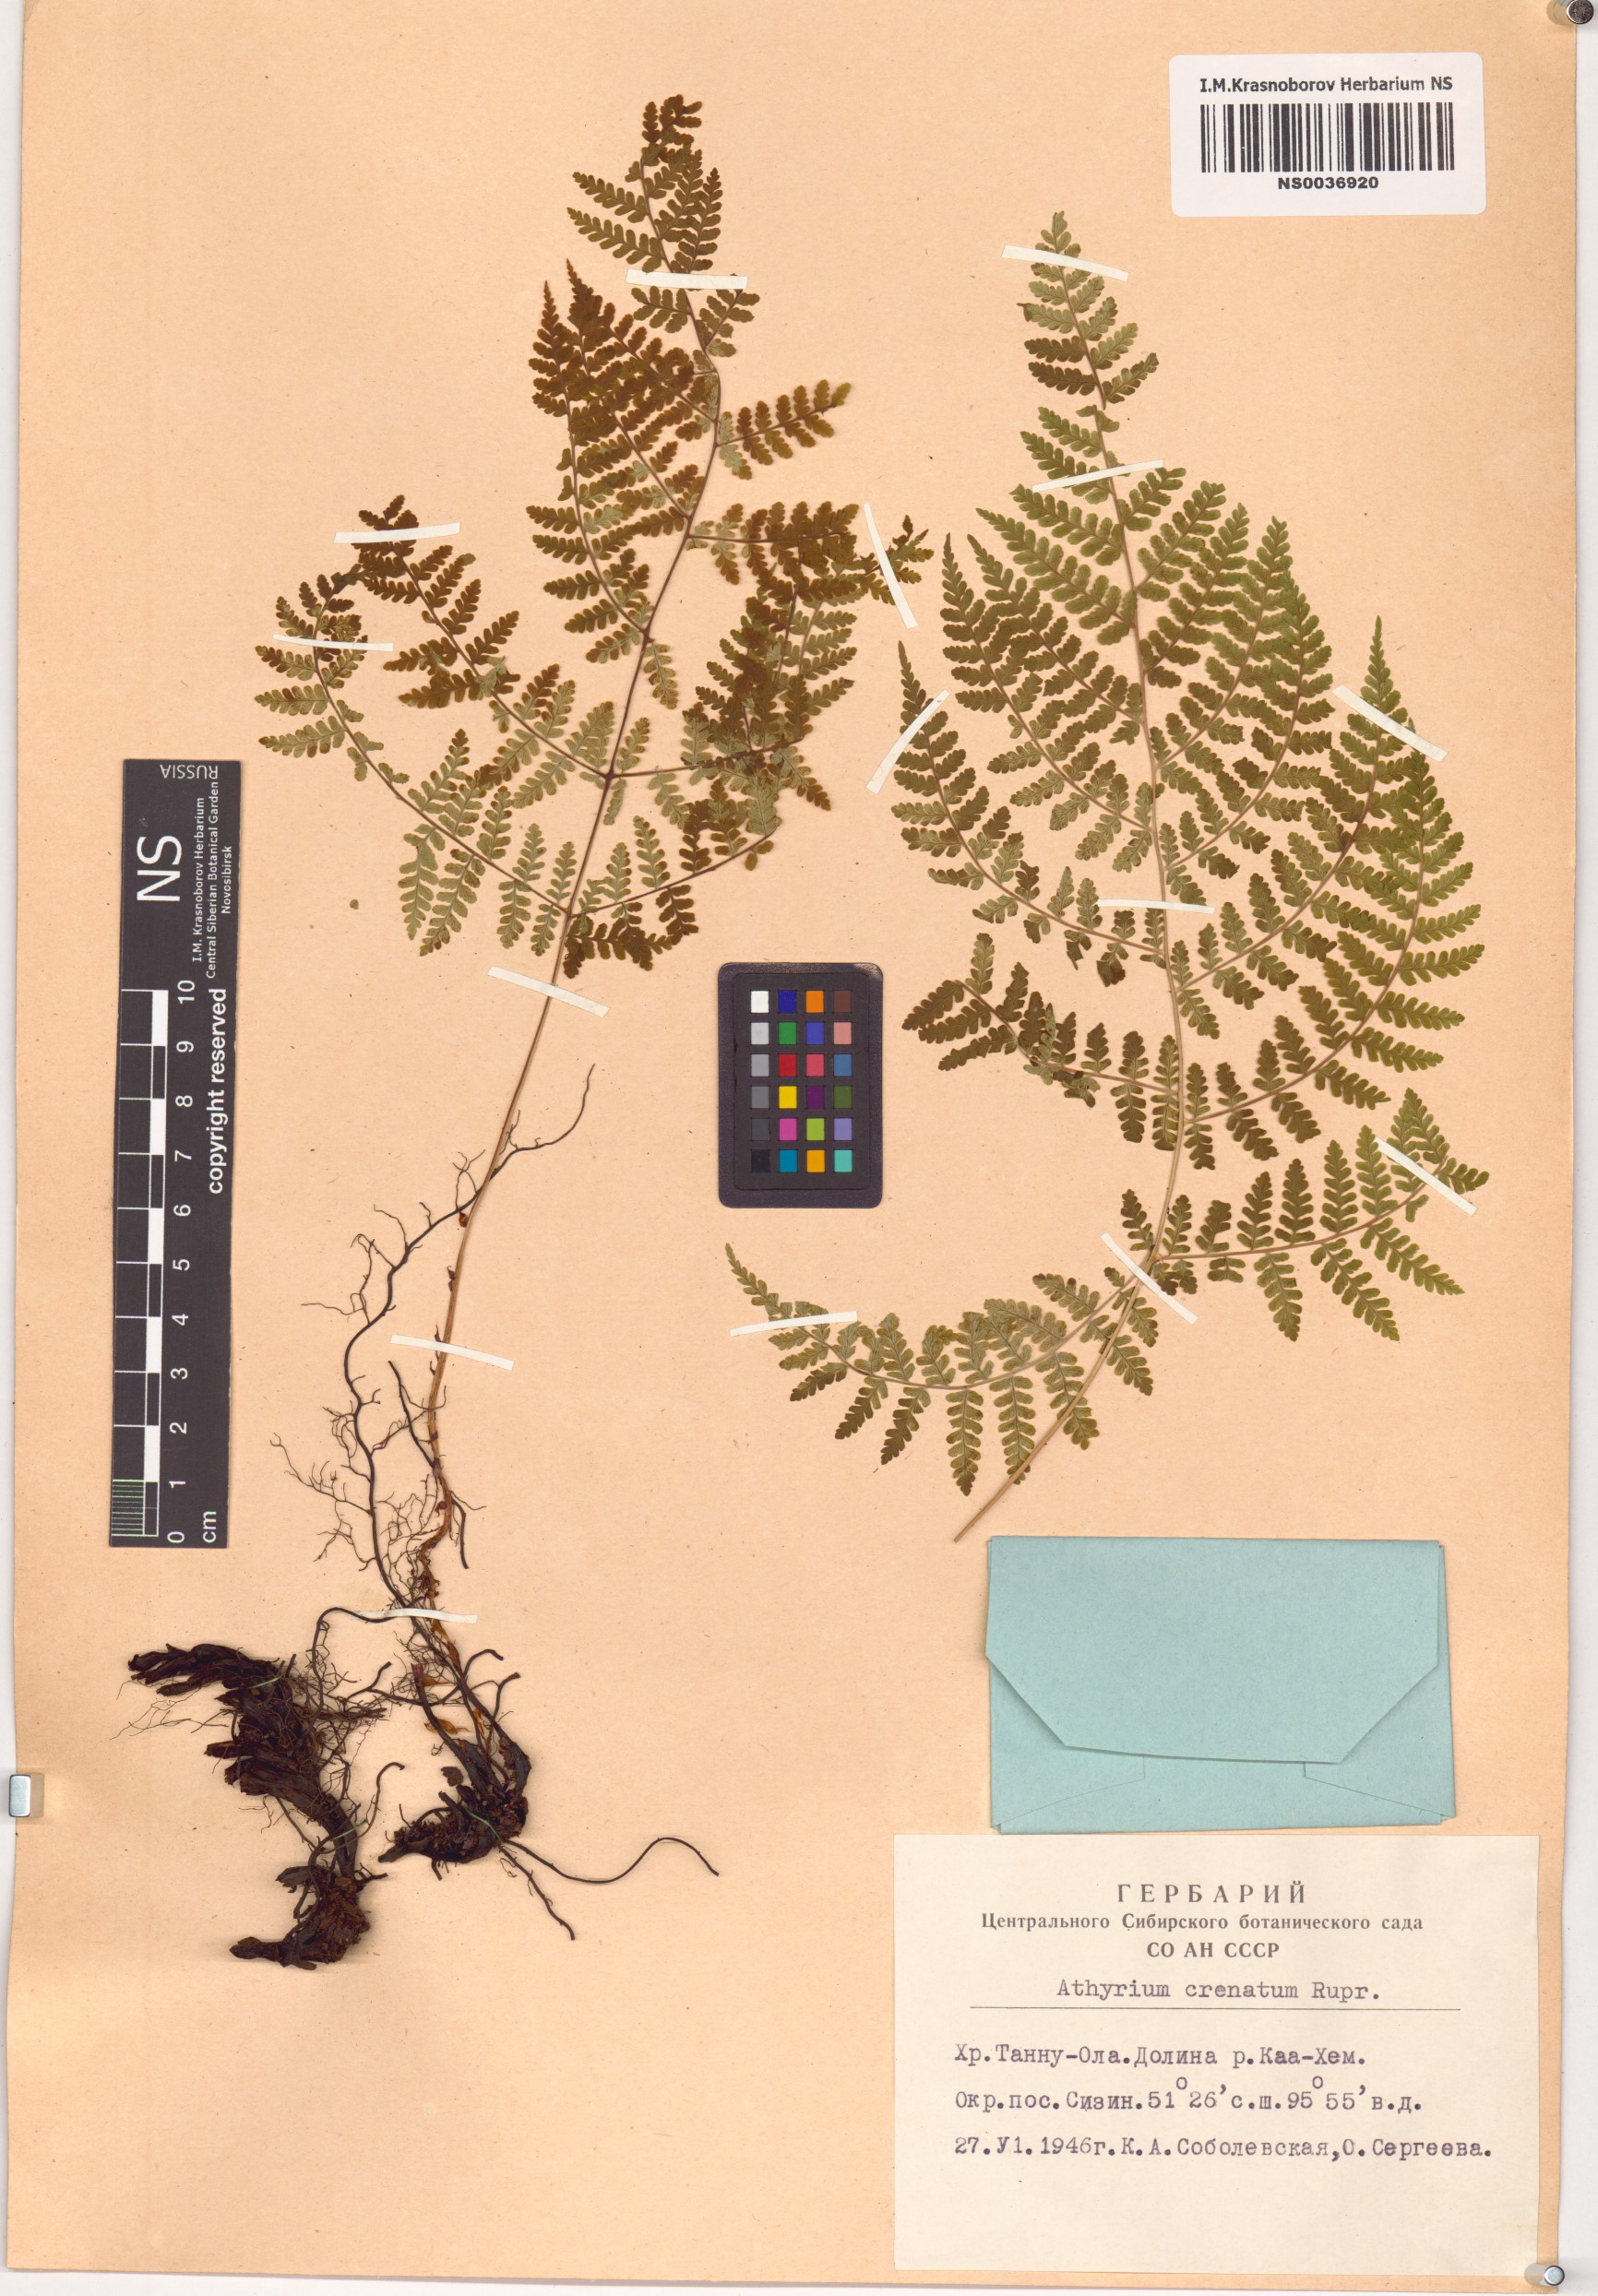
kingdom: Plantae
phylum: Tracheophyta
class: Polypodiopsida
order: Polypodiales
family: Athyriaceae
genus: Diplazium
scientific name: Diplazium sibiricum
